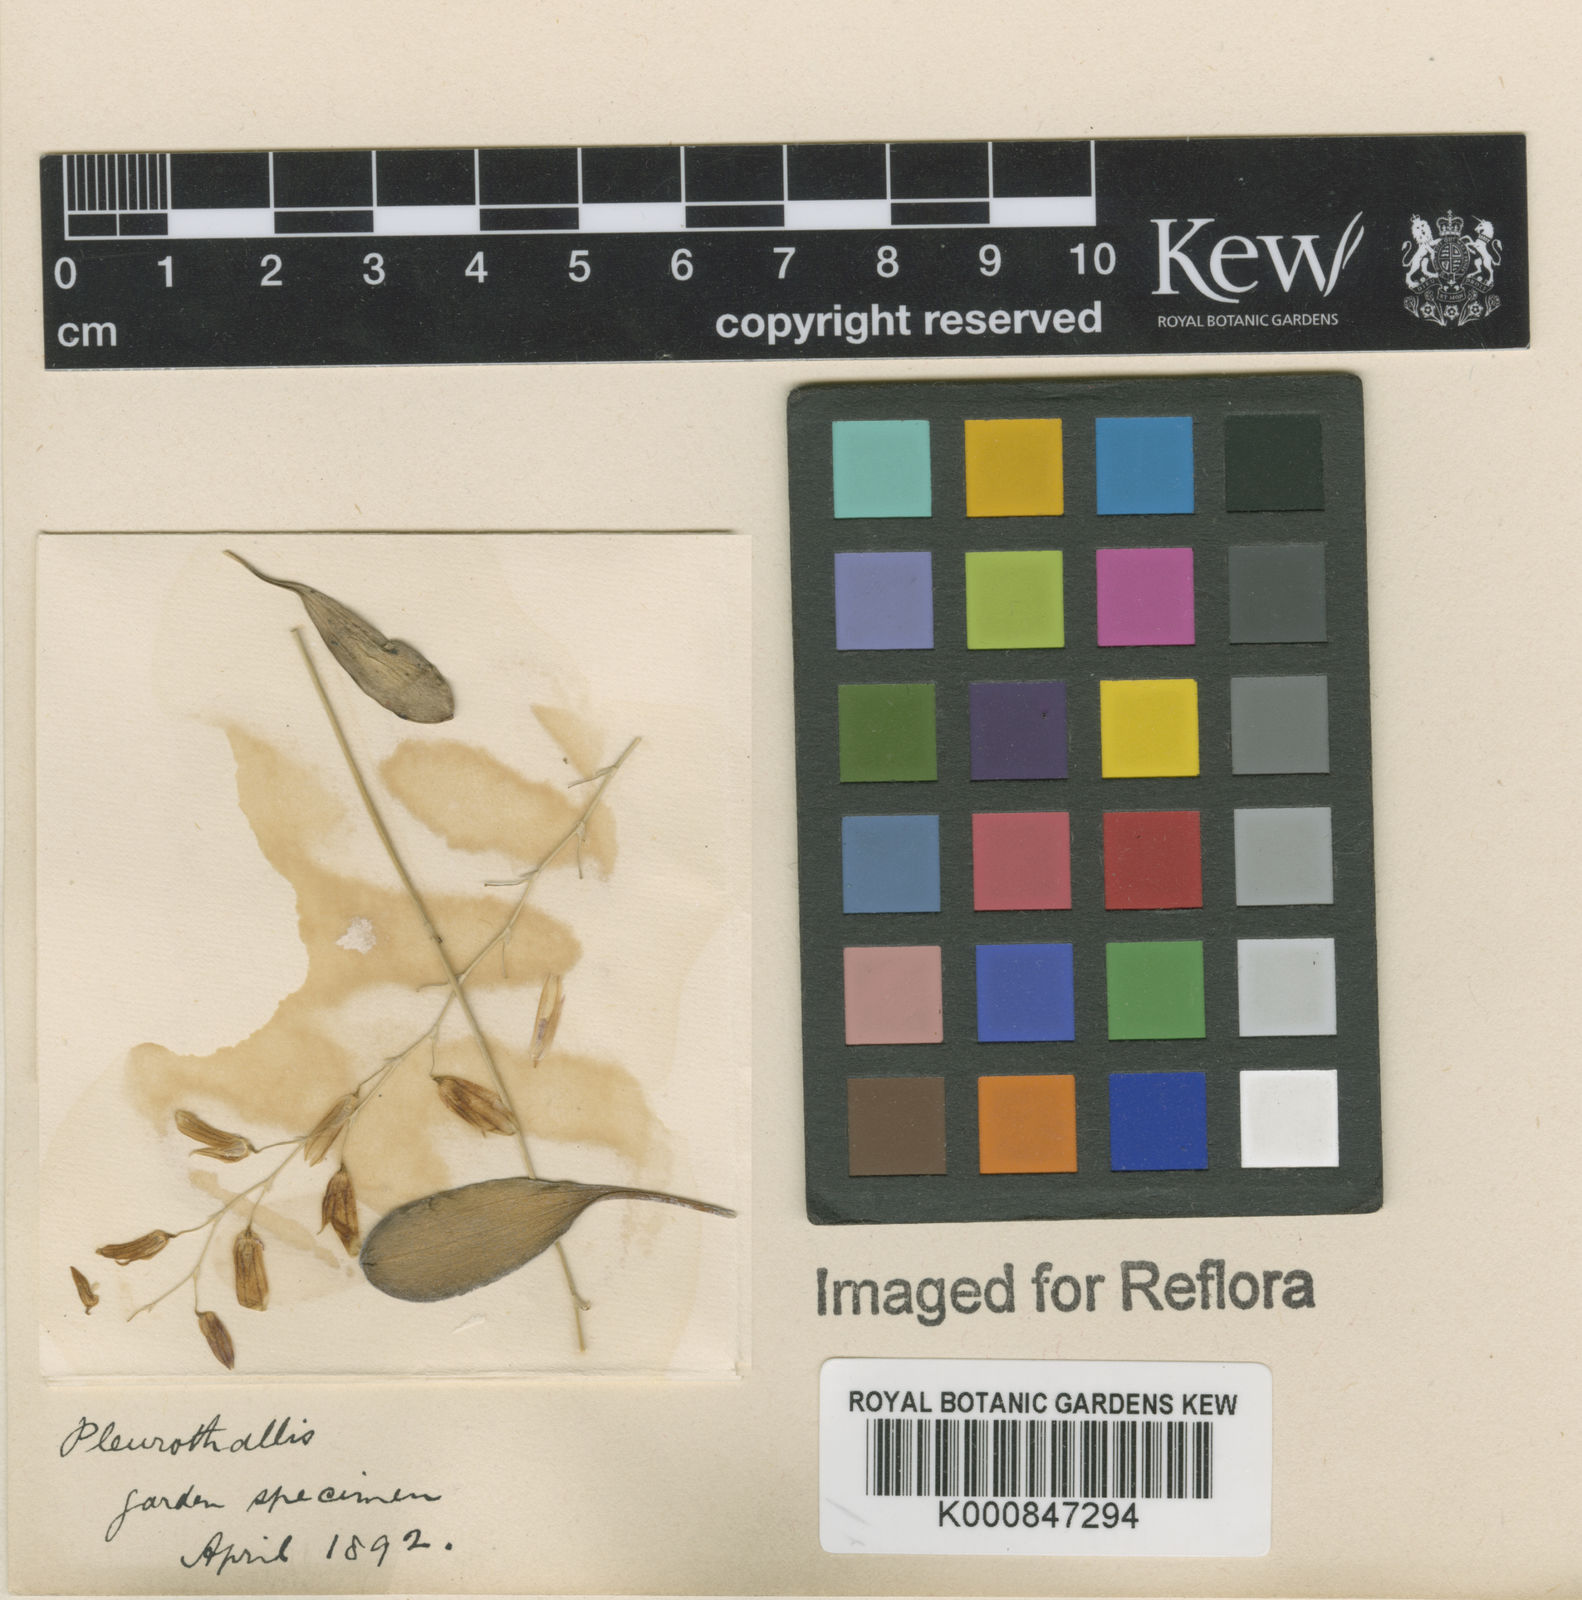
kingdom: Plantae
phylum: Tracheophyta
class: Liliopsida
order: Asparagales
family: Orchidaceae
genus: Specklinia
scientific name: Specklinia grobyi
